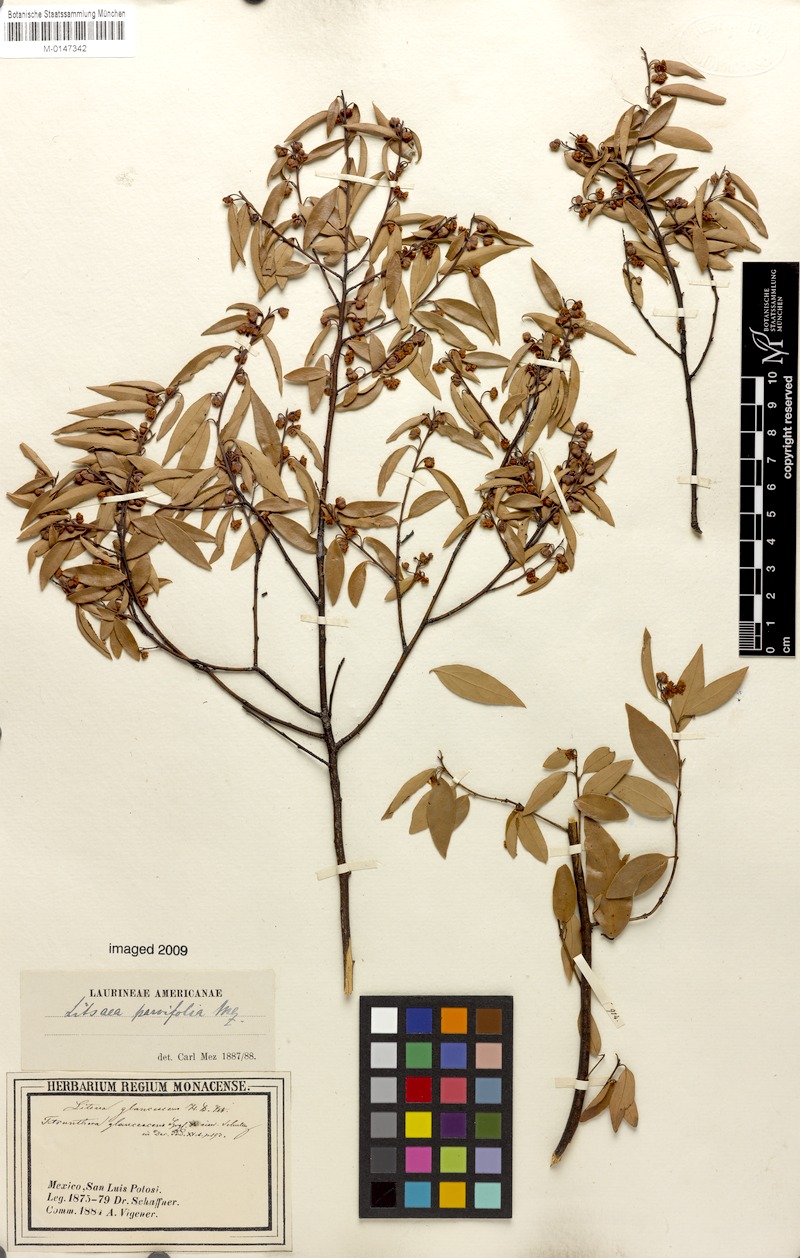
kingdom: Plantae
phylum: Tracheophyta
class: Magnoliopsida
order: Laurales
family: Lauraceae
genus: Litsea
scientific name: Litsea parvifolia
